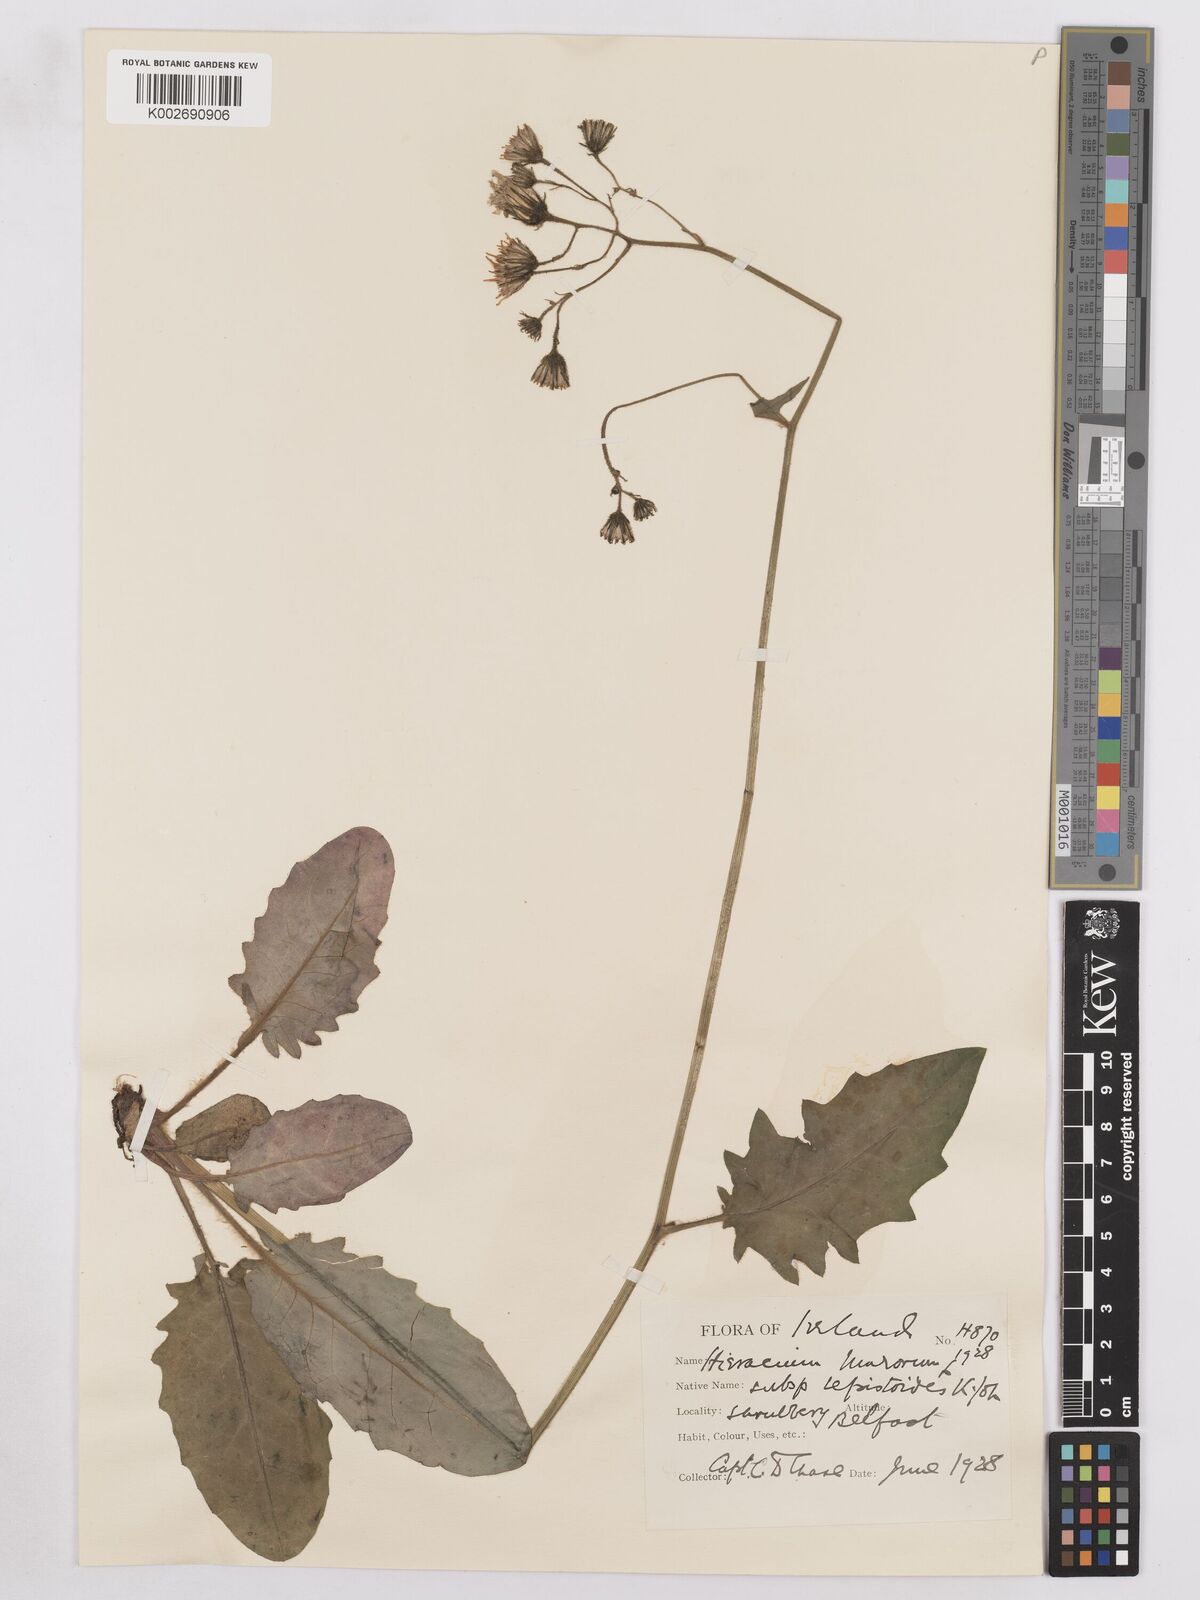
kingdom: Plantae
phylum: Tracheophyta
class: Magnoliopsida
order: Asterales
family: Asteraceae
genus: Hieracium
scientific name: Hieracium murorum
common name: Wall hawkweed
